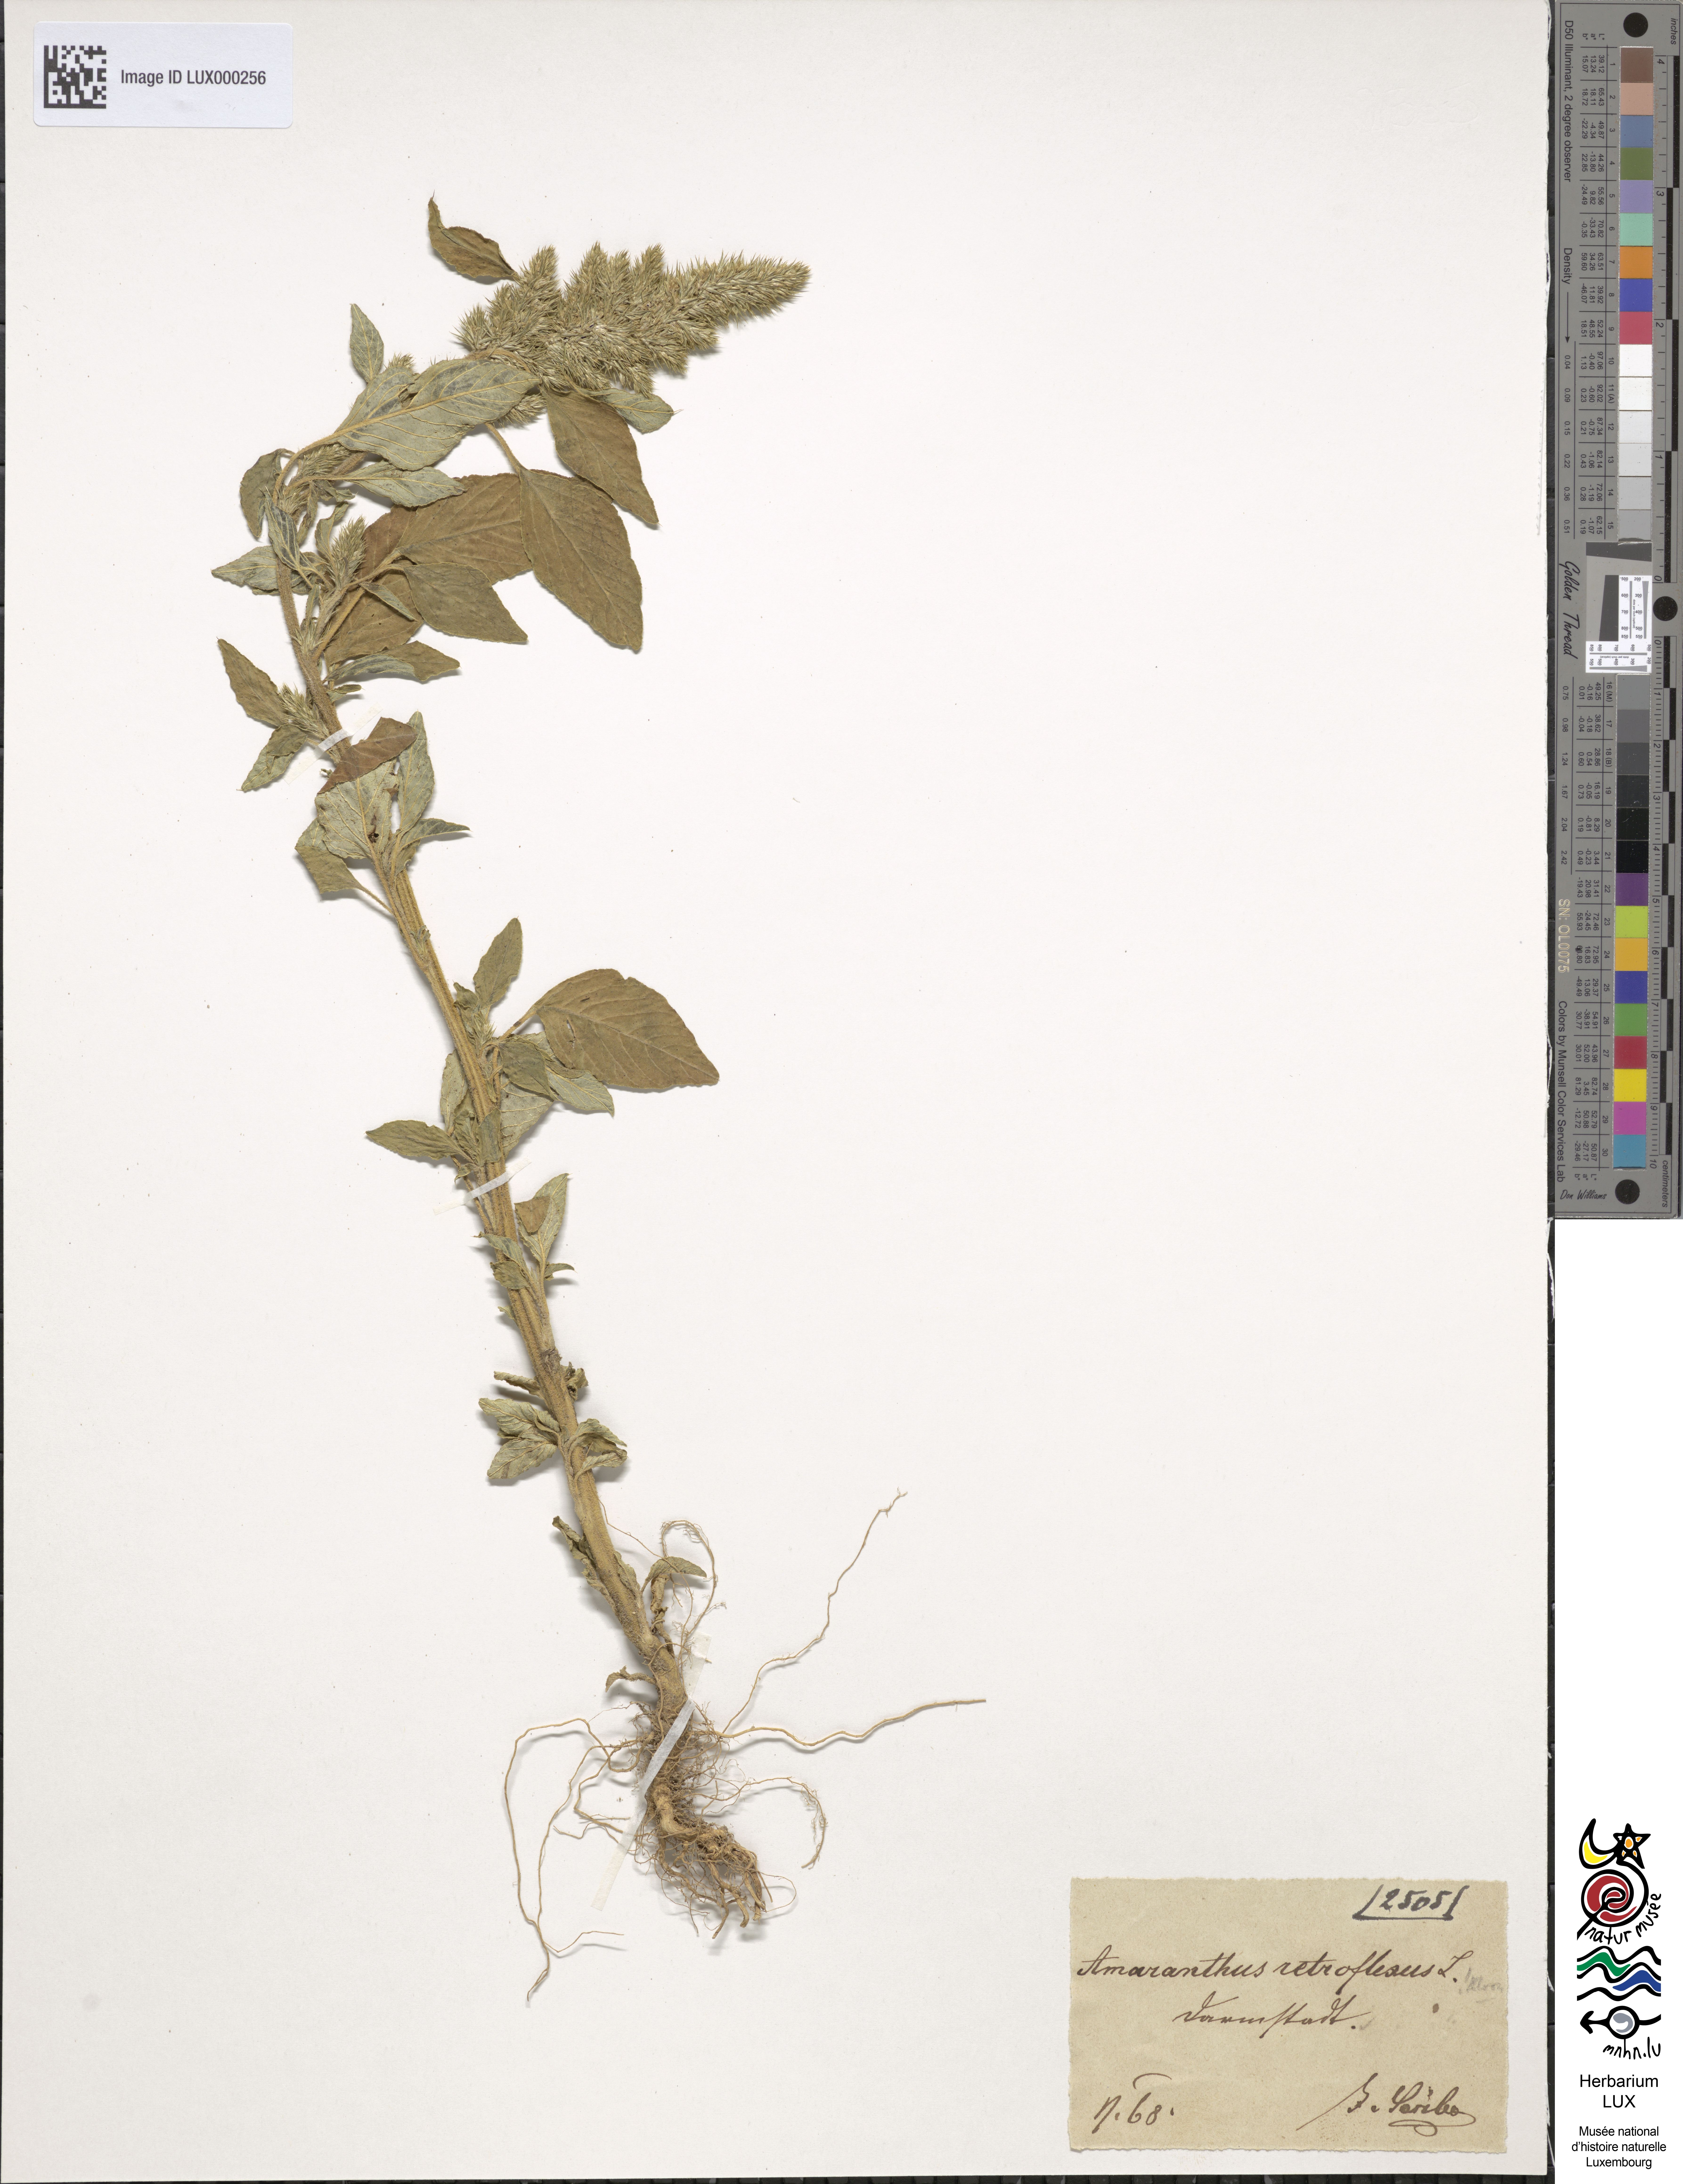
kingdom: Plantae
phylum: Tracheophyta
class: Magnoliopsida
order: Caryophyllales
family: Amaranthaceae
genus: Amaranthus
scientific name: Amaranthus retroflexus
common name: Redroot amaranth
